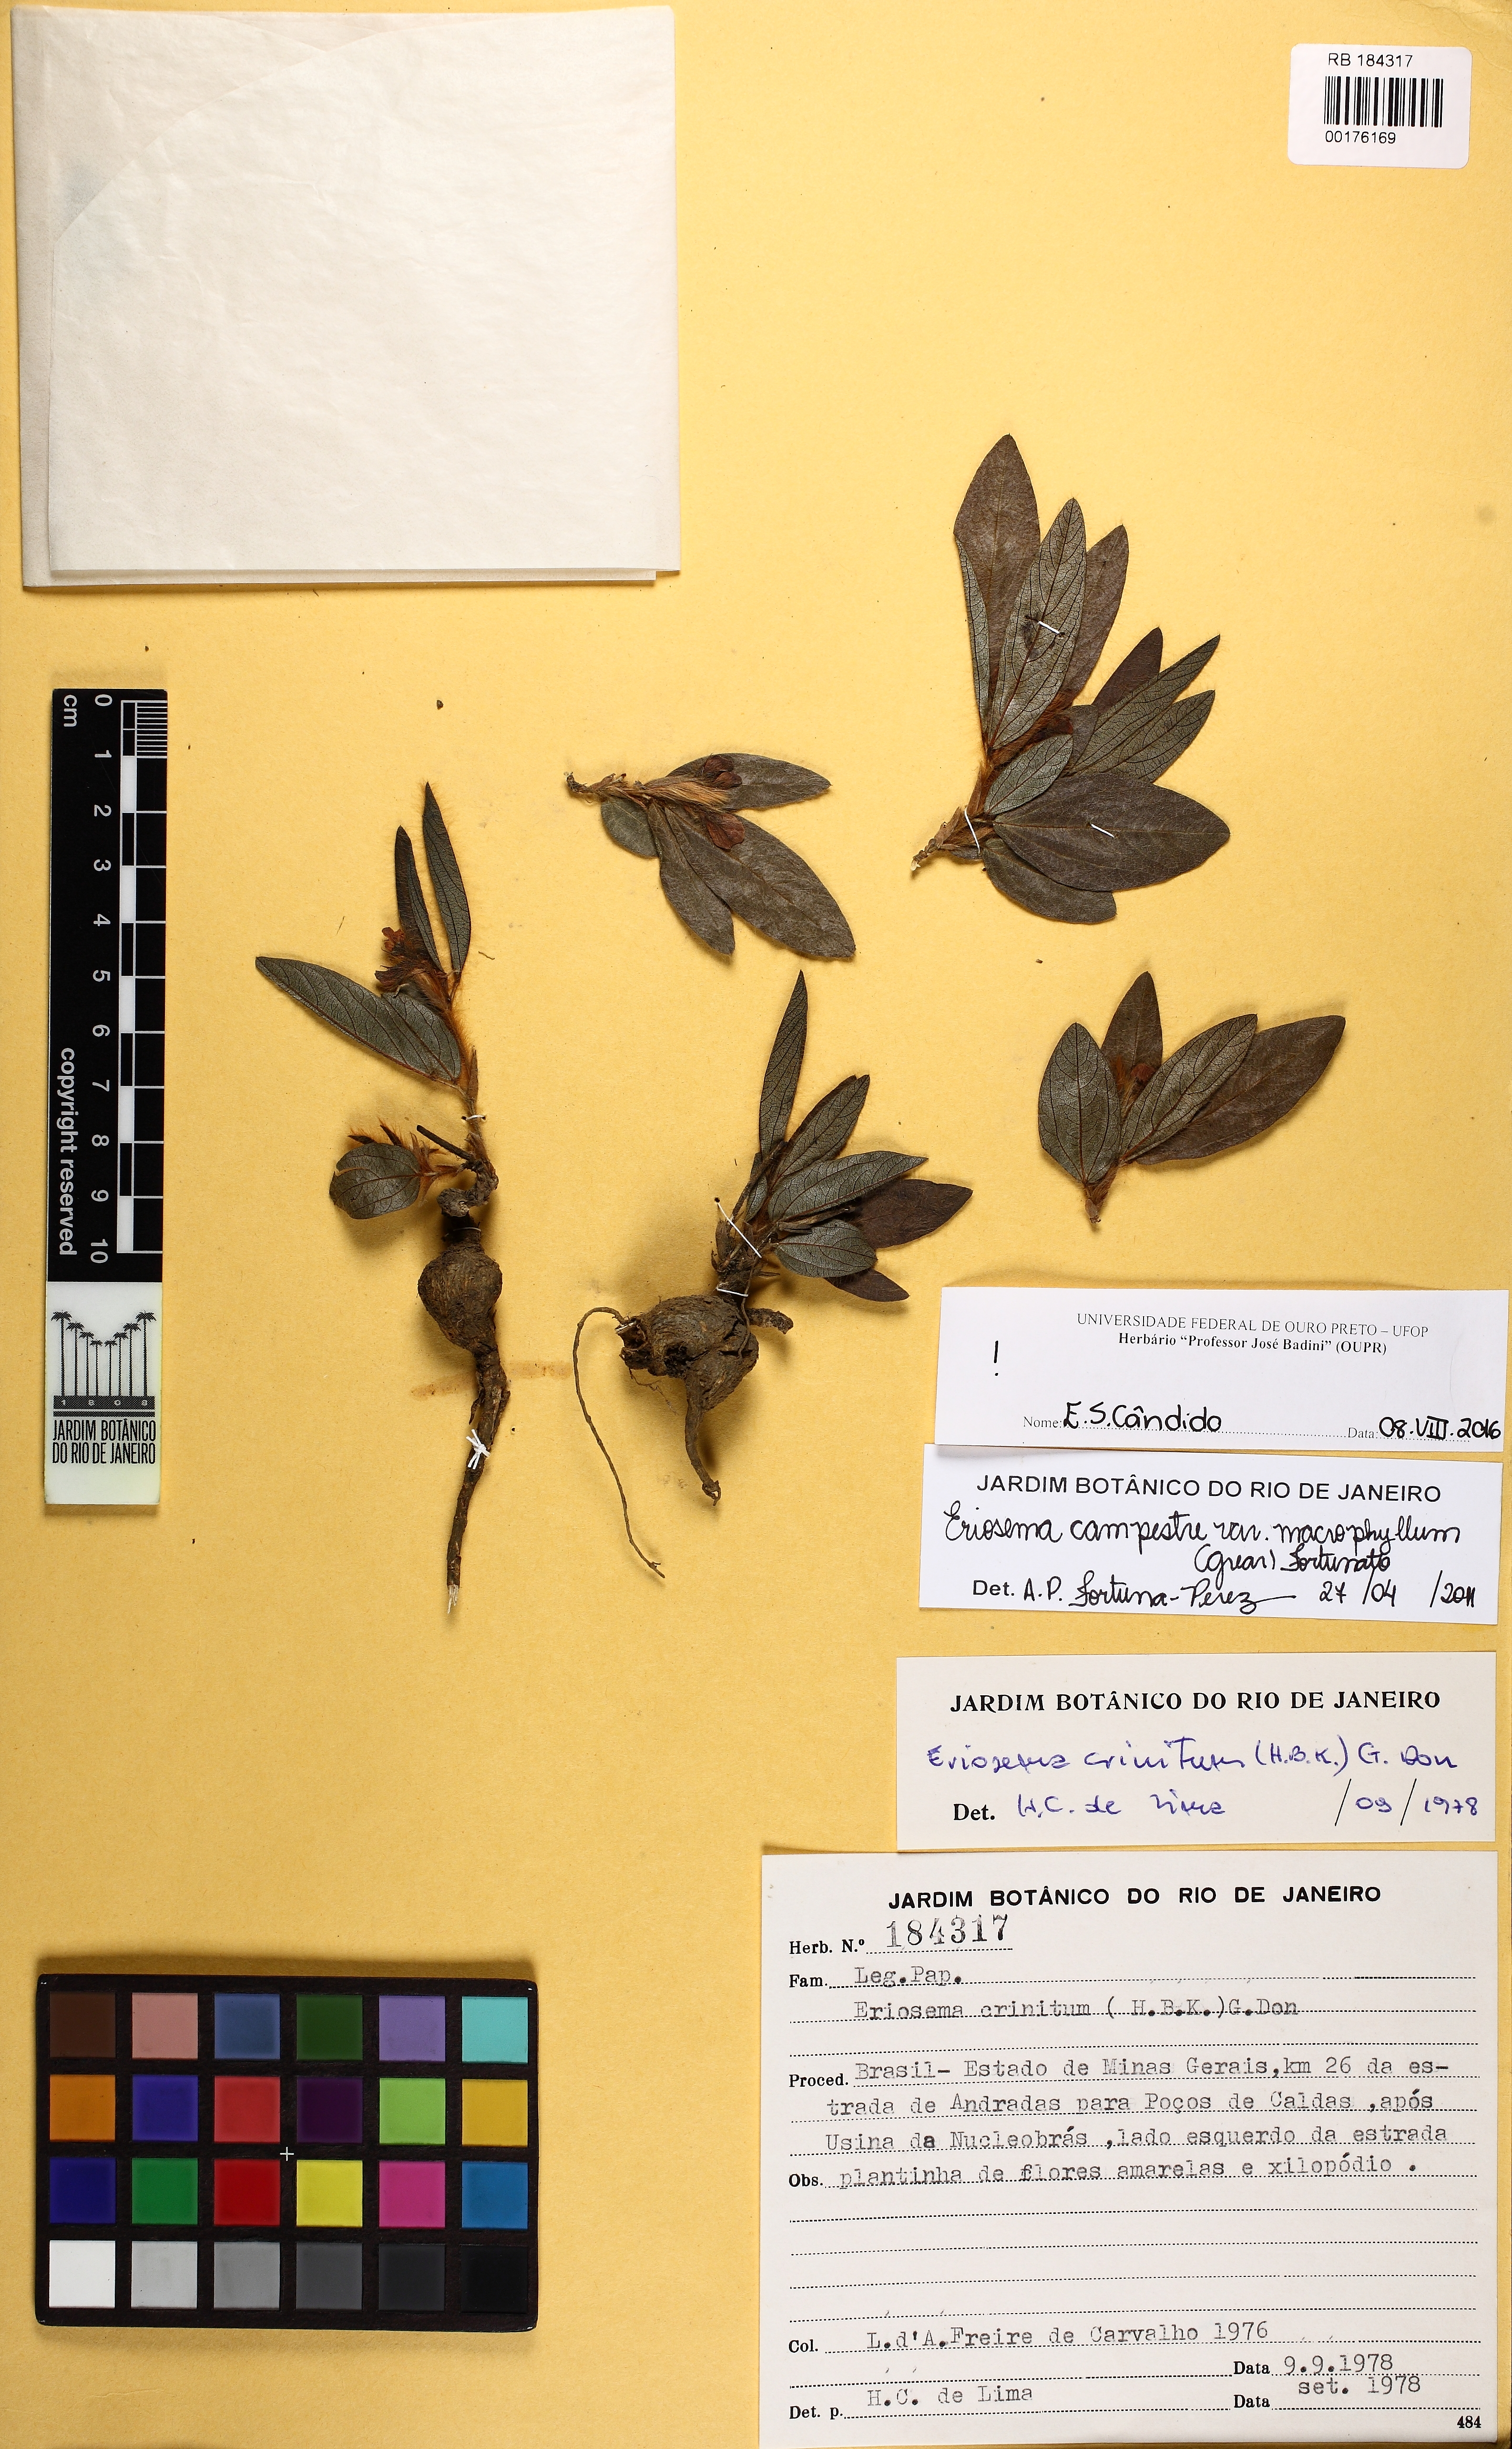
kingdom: Plantae
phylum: Tracheophyta
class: Magnoliopsida
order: Fabales
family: Fabaceae
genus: Eriosema
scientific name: Eriosema crinitum
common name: Sand pea
